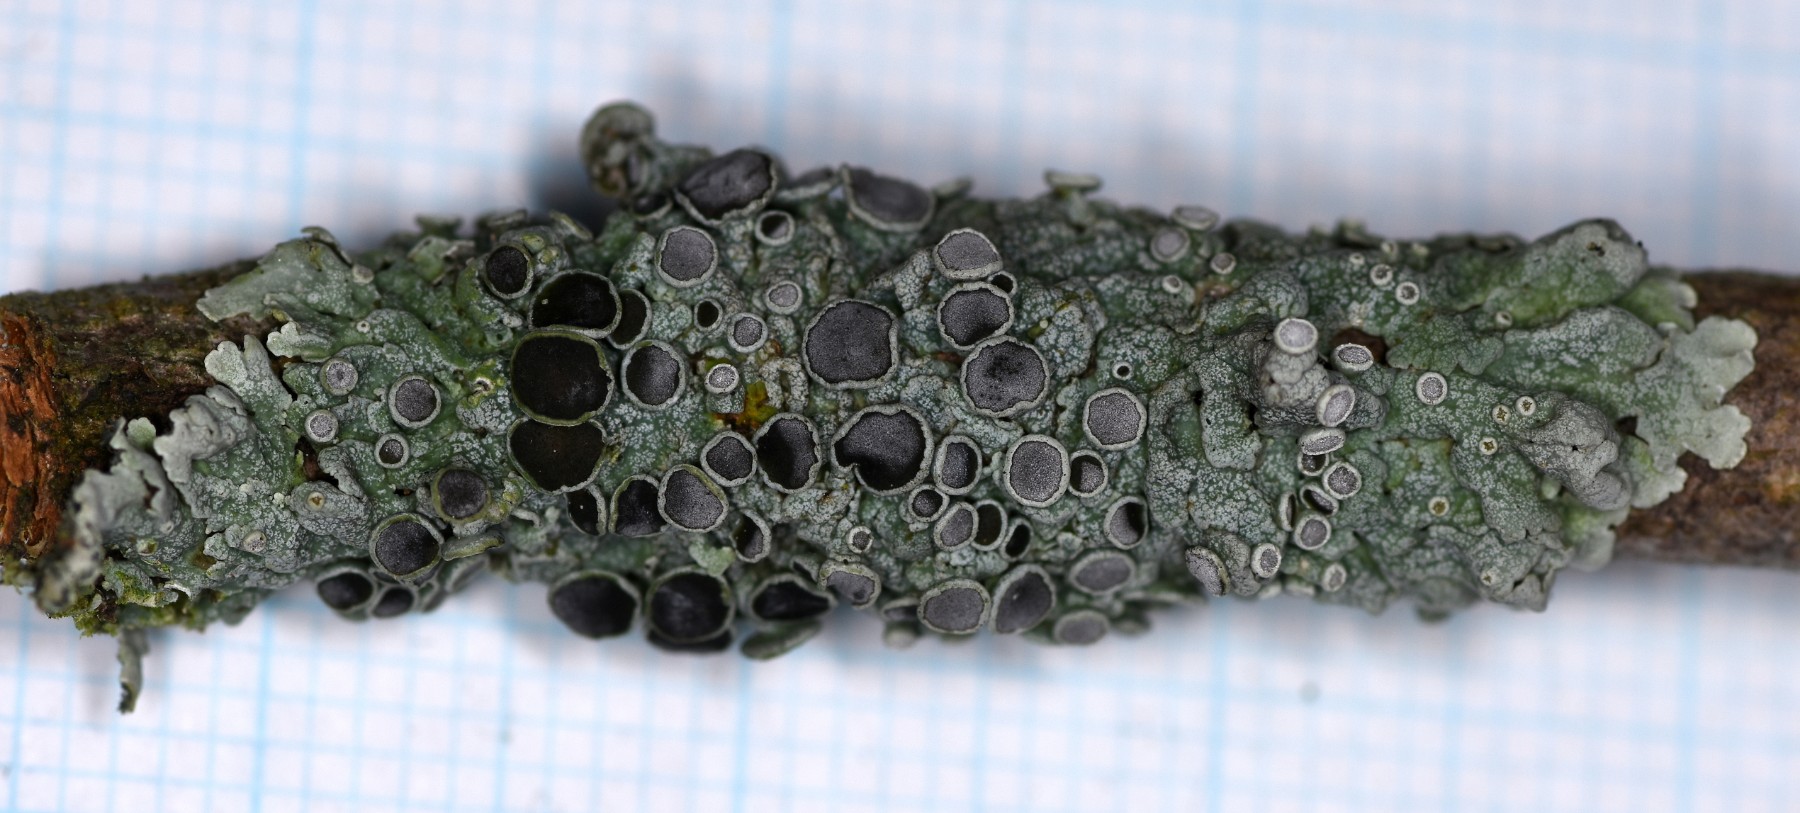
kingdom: Fungi
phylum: Ascomycota
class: Lecanoromycetes
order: Caliciales
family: Physciaceae
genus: Physcia
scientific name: Physcia aipolia
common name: hvidprikket rosetlav
